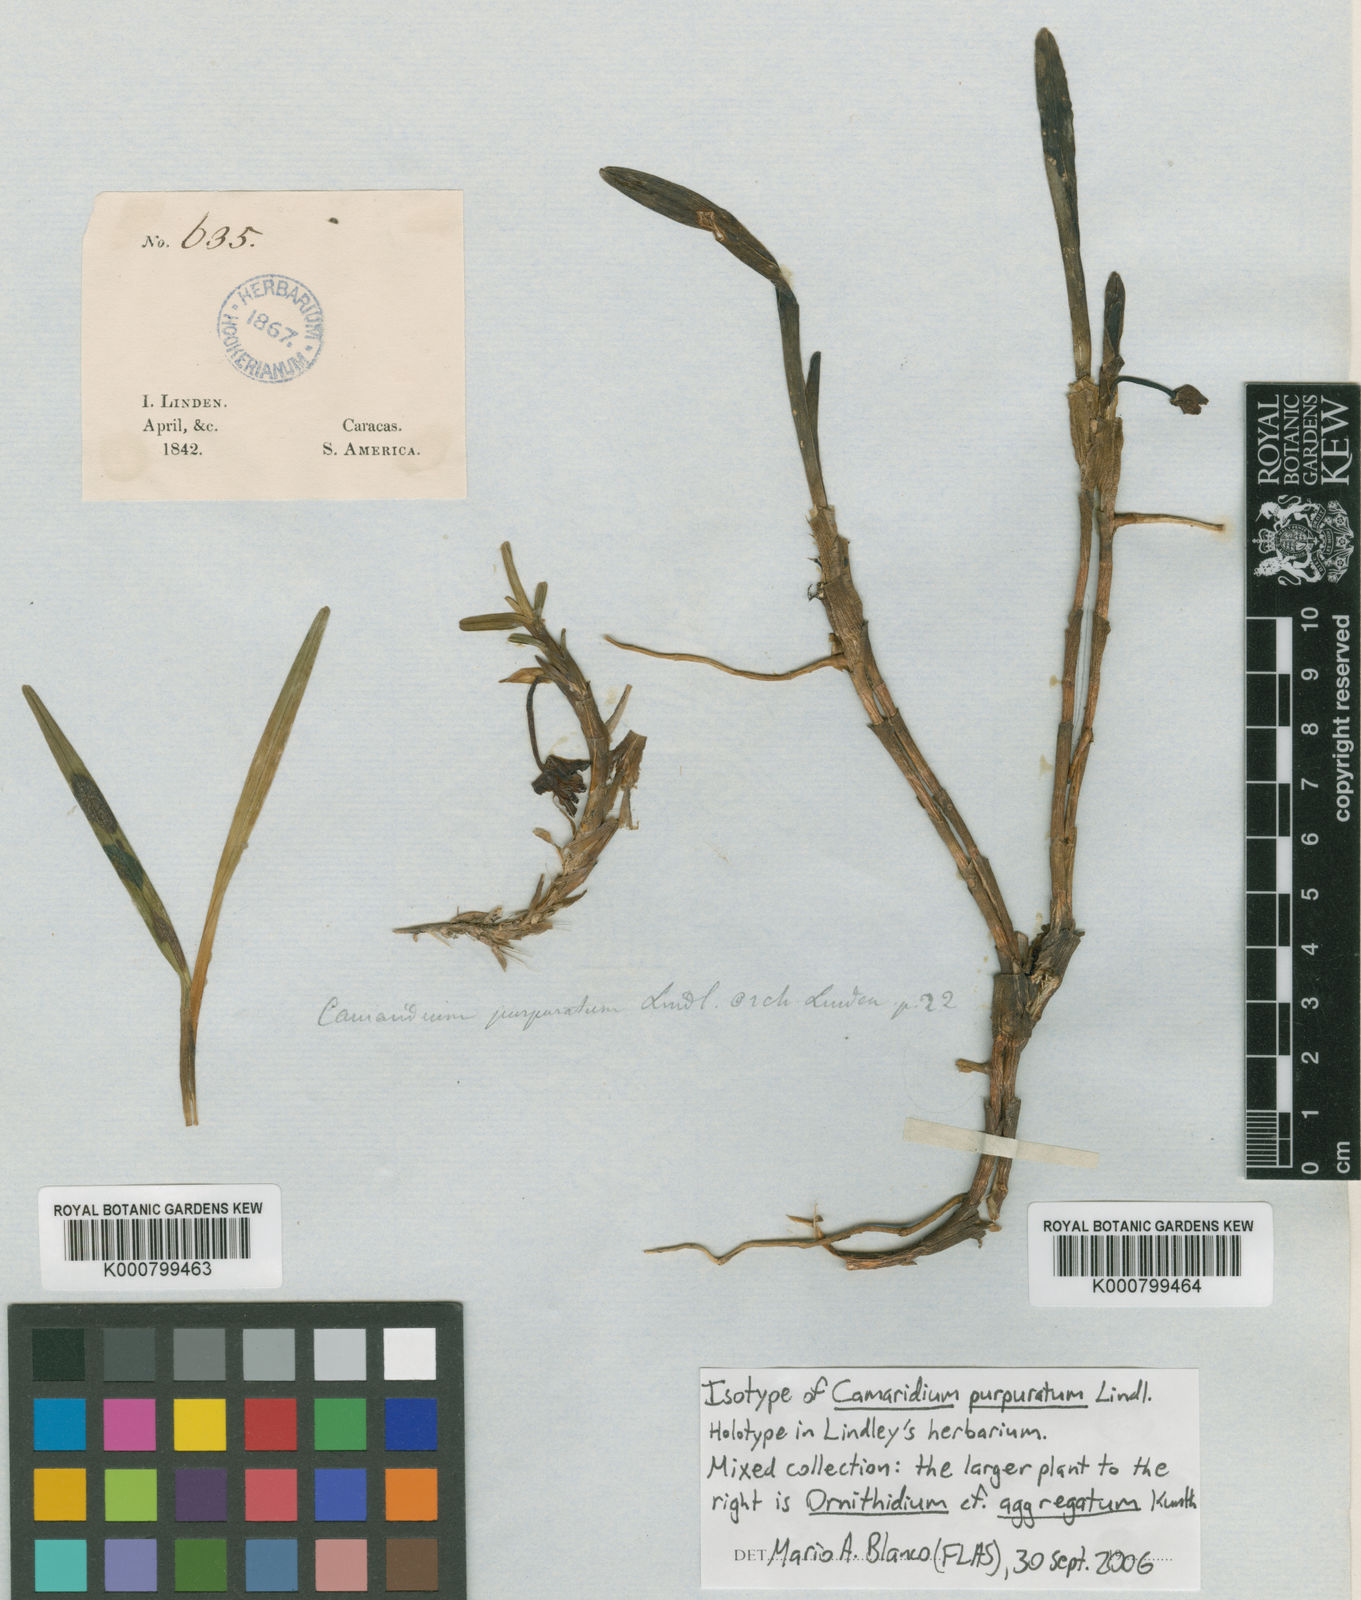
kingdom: Plantae
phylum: Tracheophyta
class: Liliopsida
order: Asparagales
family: Orchidaceae
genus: Maxillaria
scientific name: Maxillaria purpurata
